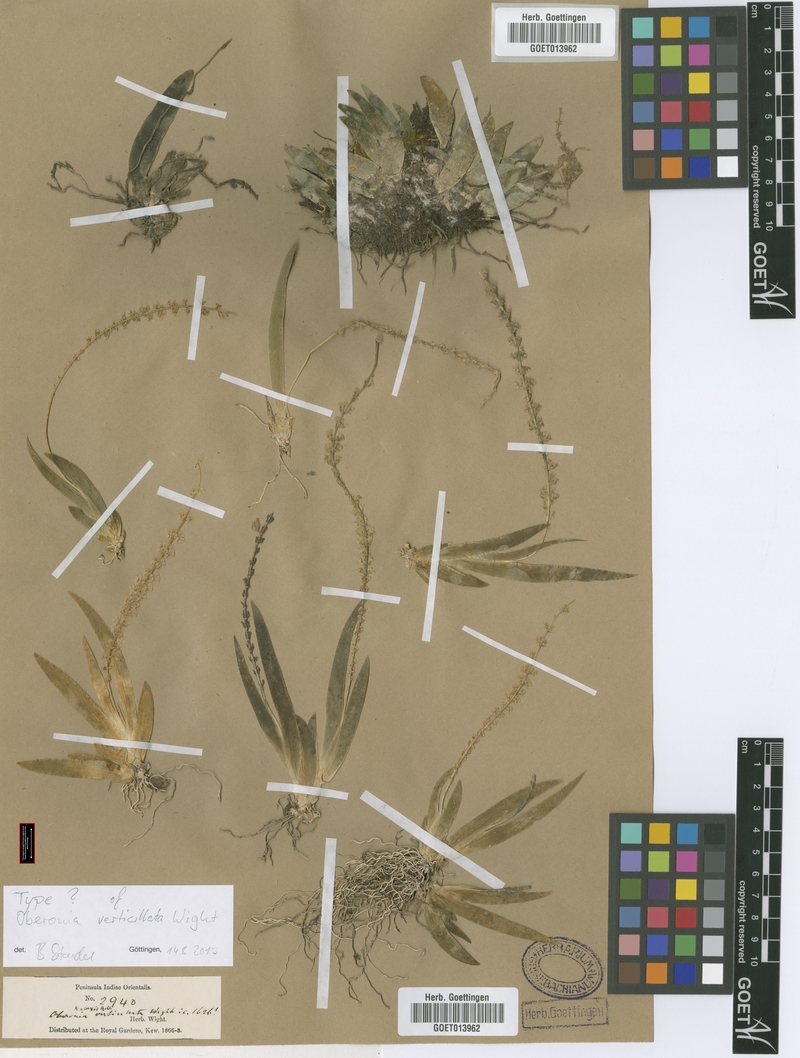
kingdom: Plantae
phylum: Tracheophyta
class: Liliopsida
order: Asparagales
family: Orchidaceae
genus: Oberonia
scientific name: Oberonia verticillata
